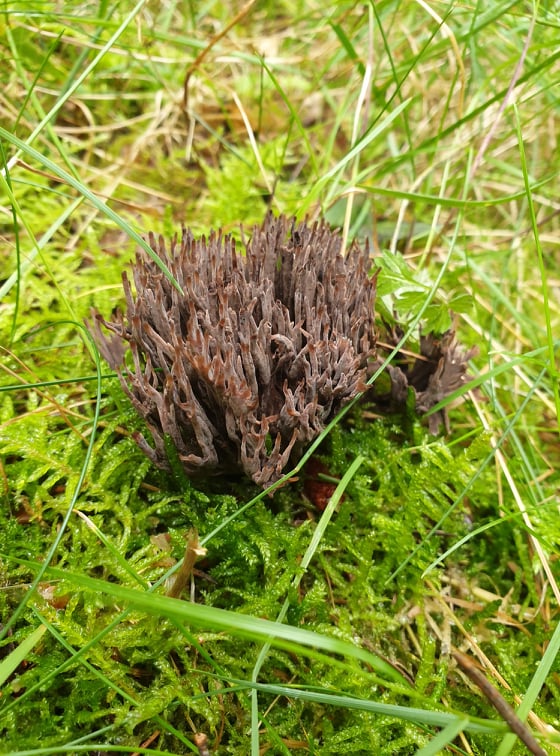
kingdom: Fungi
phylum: Basidiomycota
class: Agaricomycetes
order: Thelephorales
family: Thelephoraceae
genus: Thelephora
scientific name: Thelephora palmata
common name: grenet frynsesvamp
